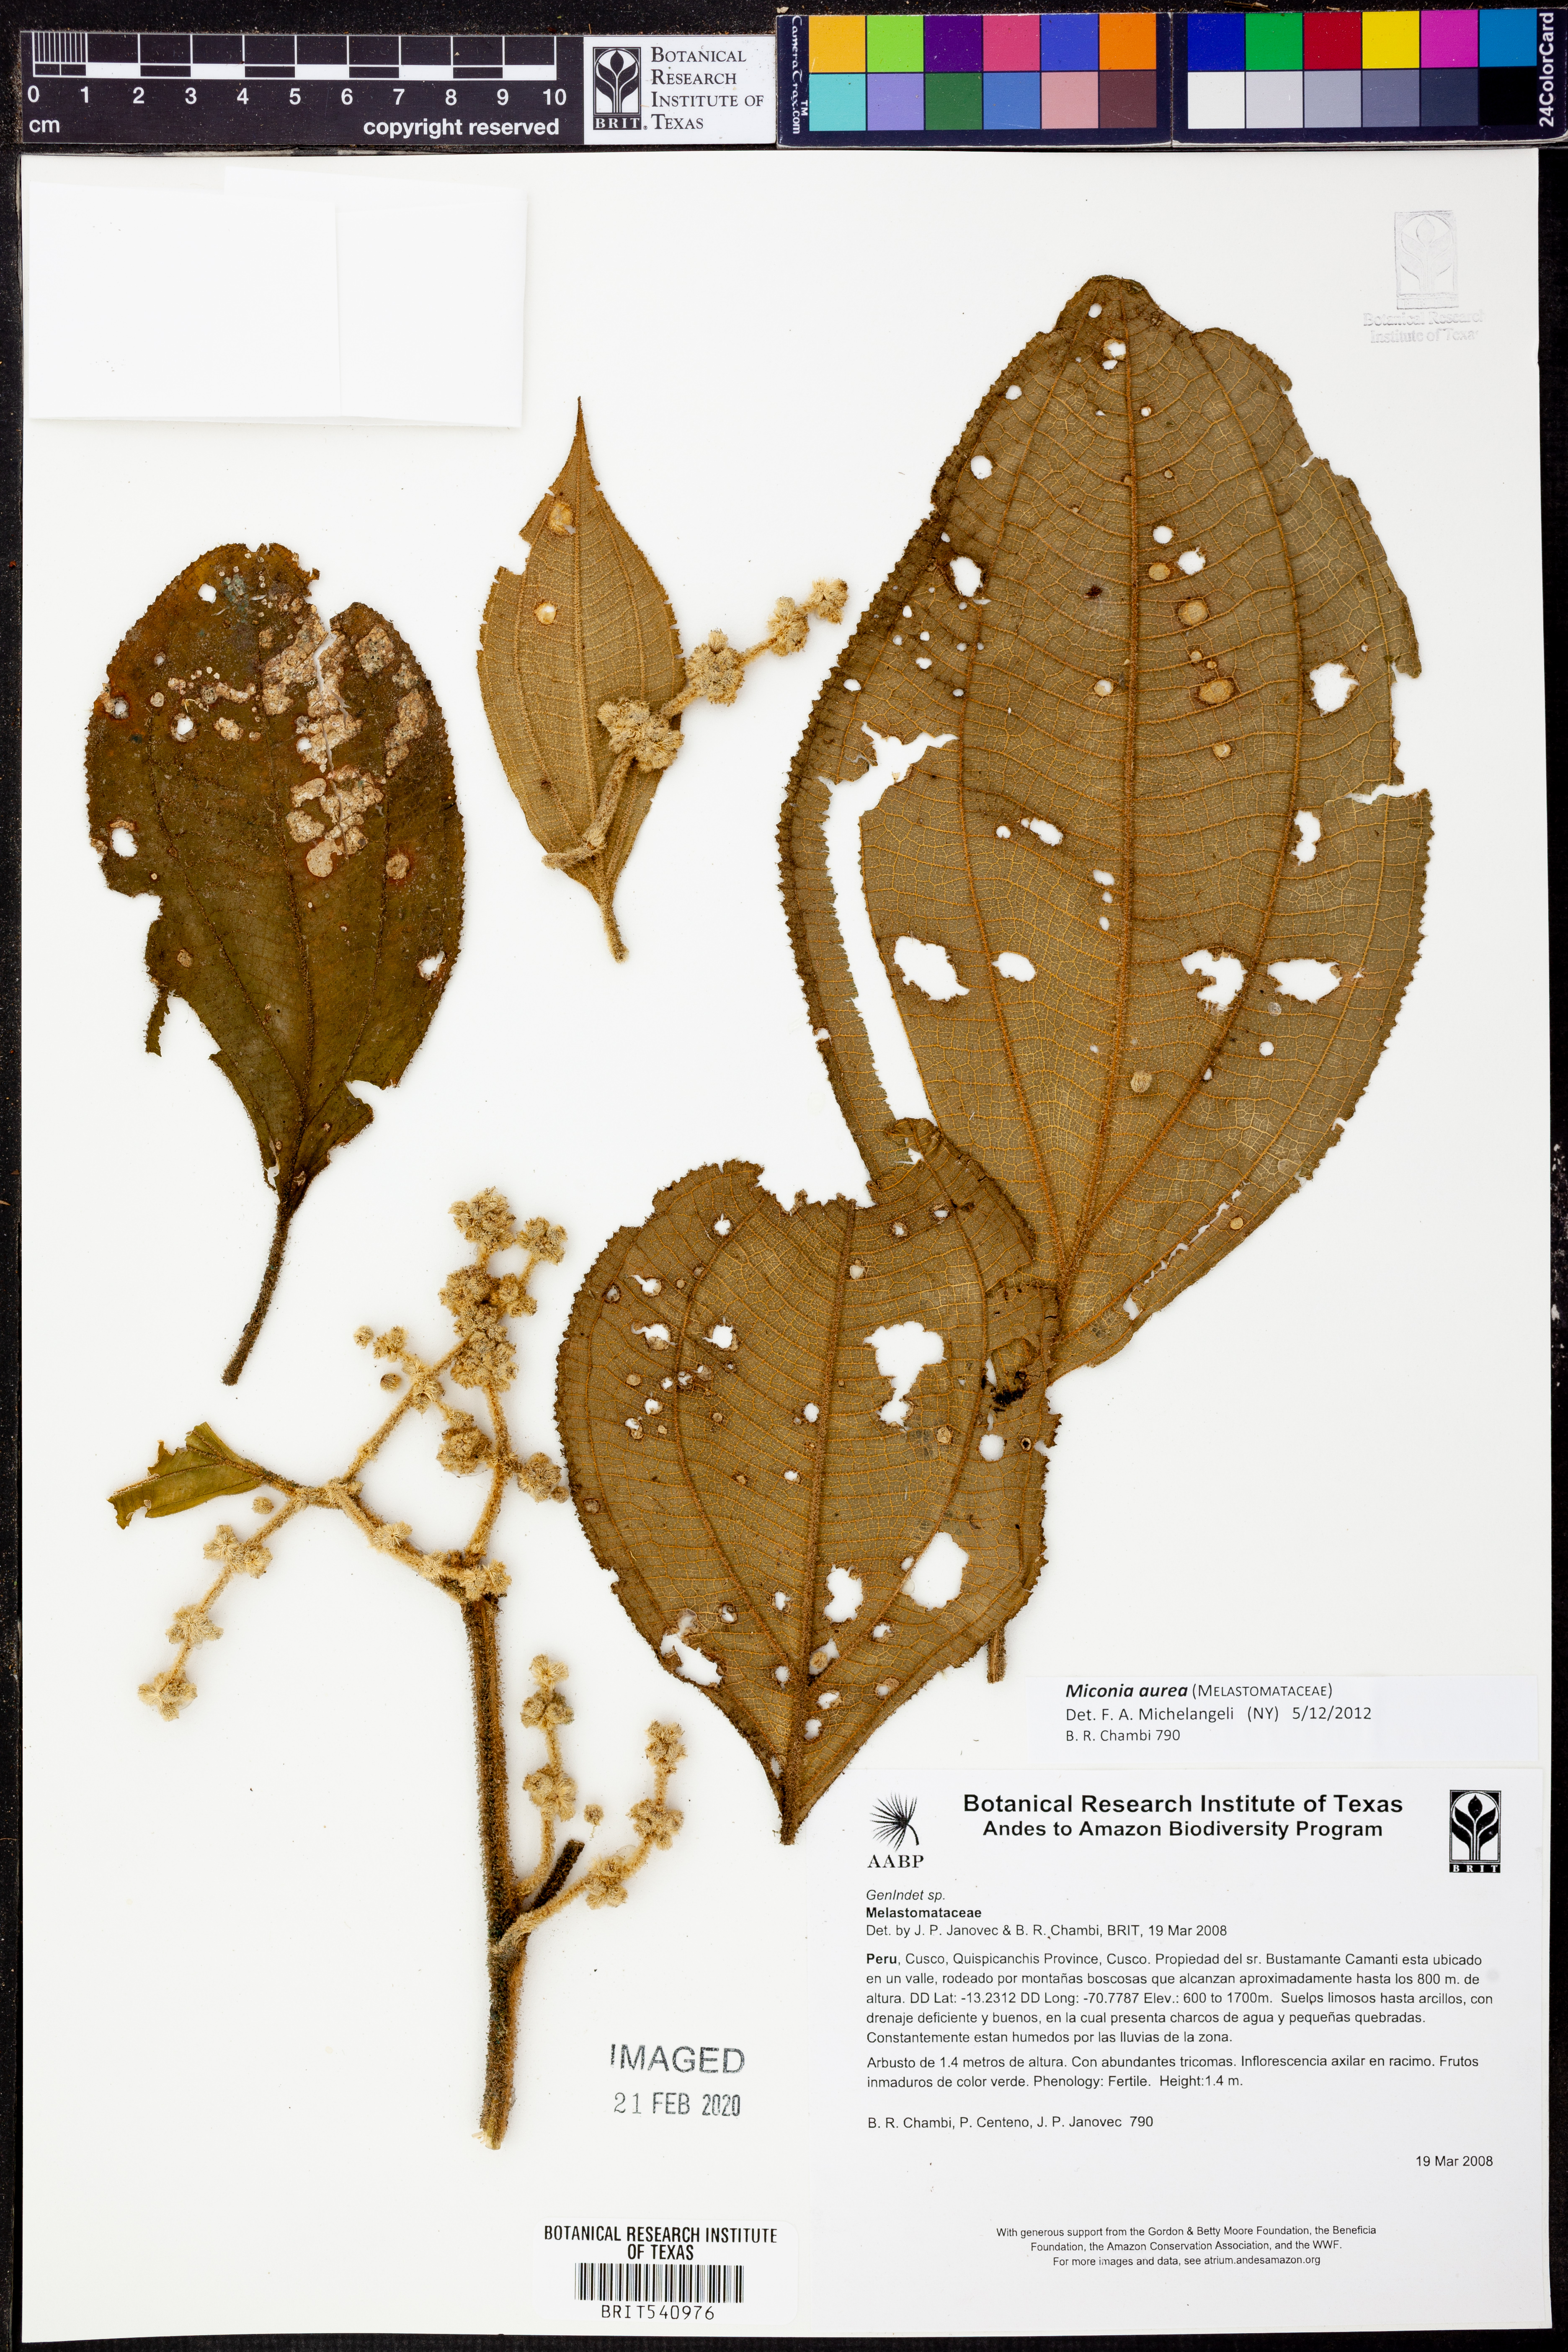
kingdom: Plantae
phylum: Tracheophyta
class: Magnoliopsida
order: Myrtales
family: Melastomataceae
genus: Miconia
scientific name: Miconia aurea
